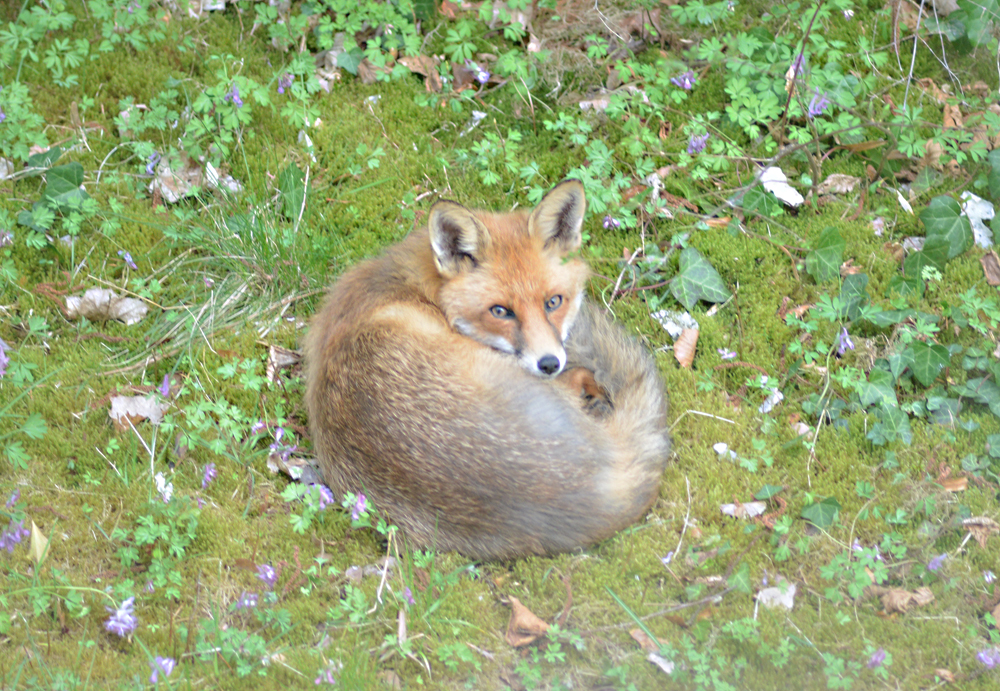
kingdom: Animalia
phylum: Chordata
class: Mammalia
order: Carnivora
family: Canidae
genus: Vulpes
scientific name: Vulpes vulpes
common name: Red fox
